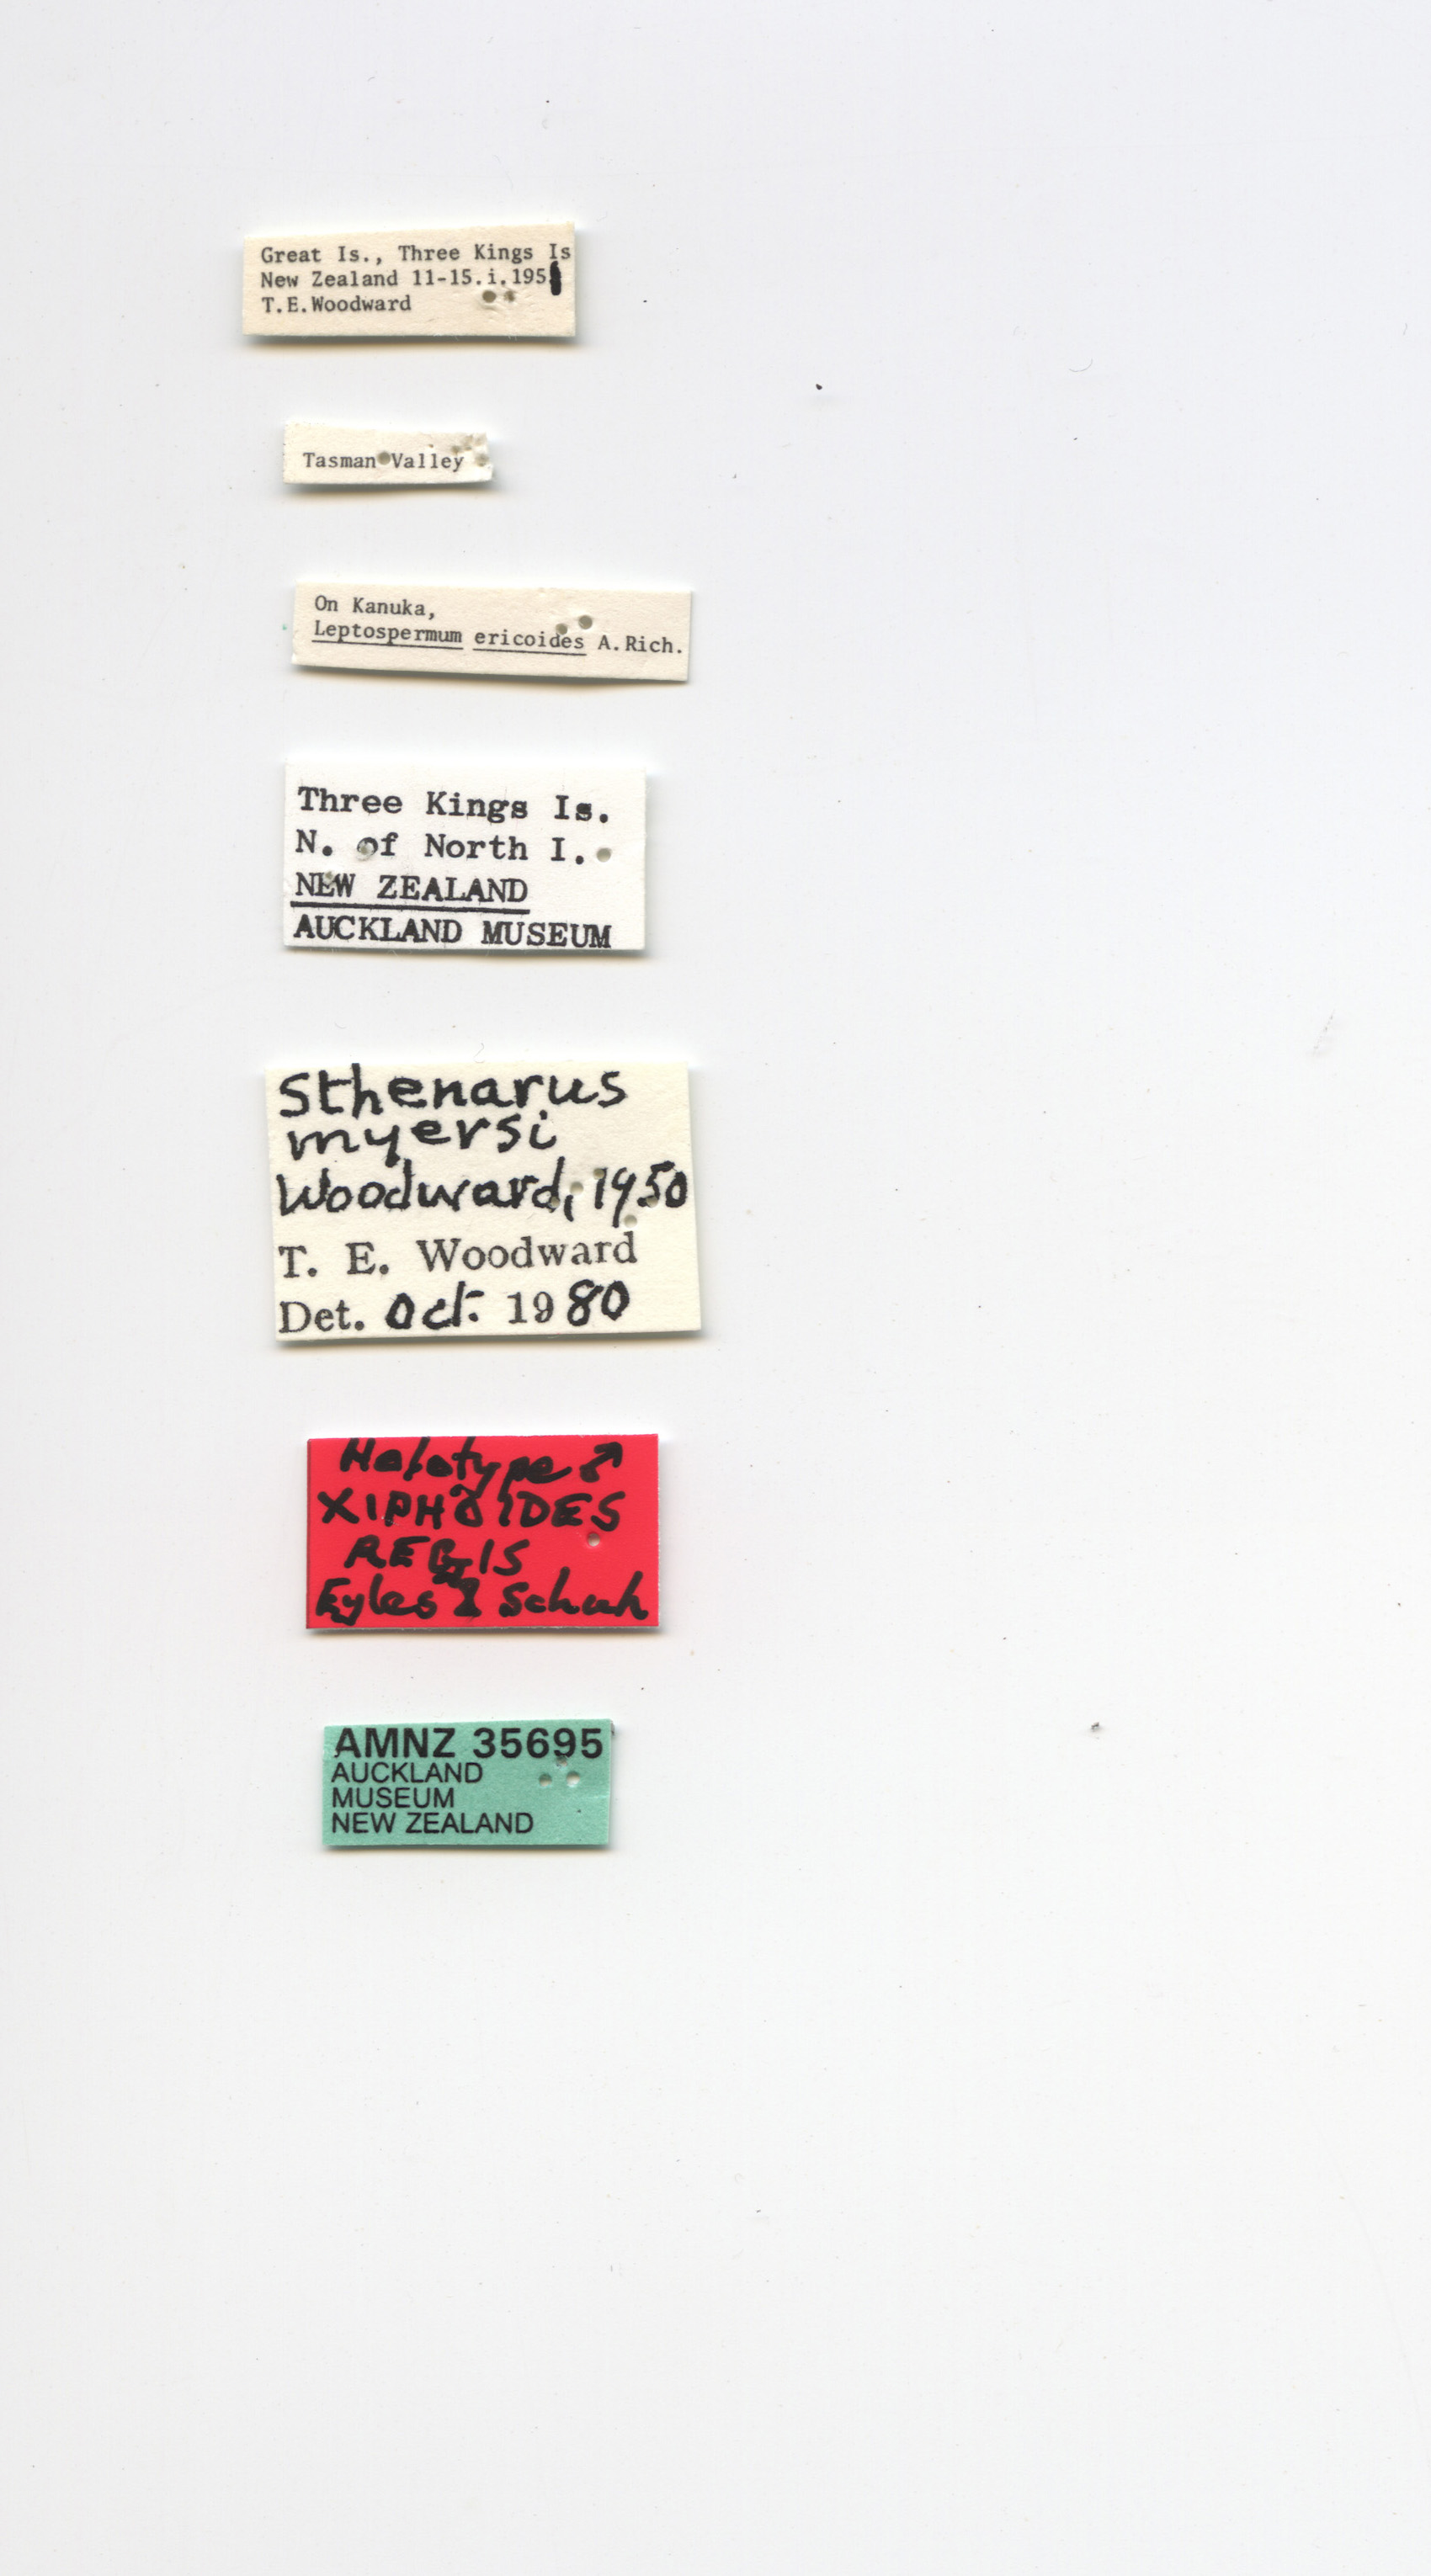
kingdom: Animalia
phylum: Arthropoda
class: Insecta
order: Hemiptera
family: Miridae
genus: Xiphoides
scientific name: Xiphoides regis
